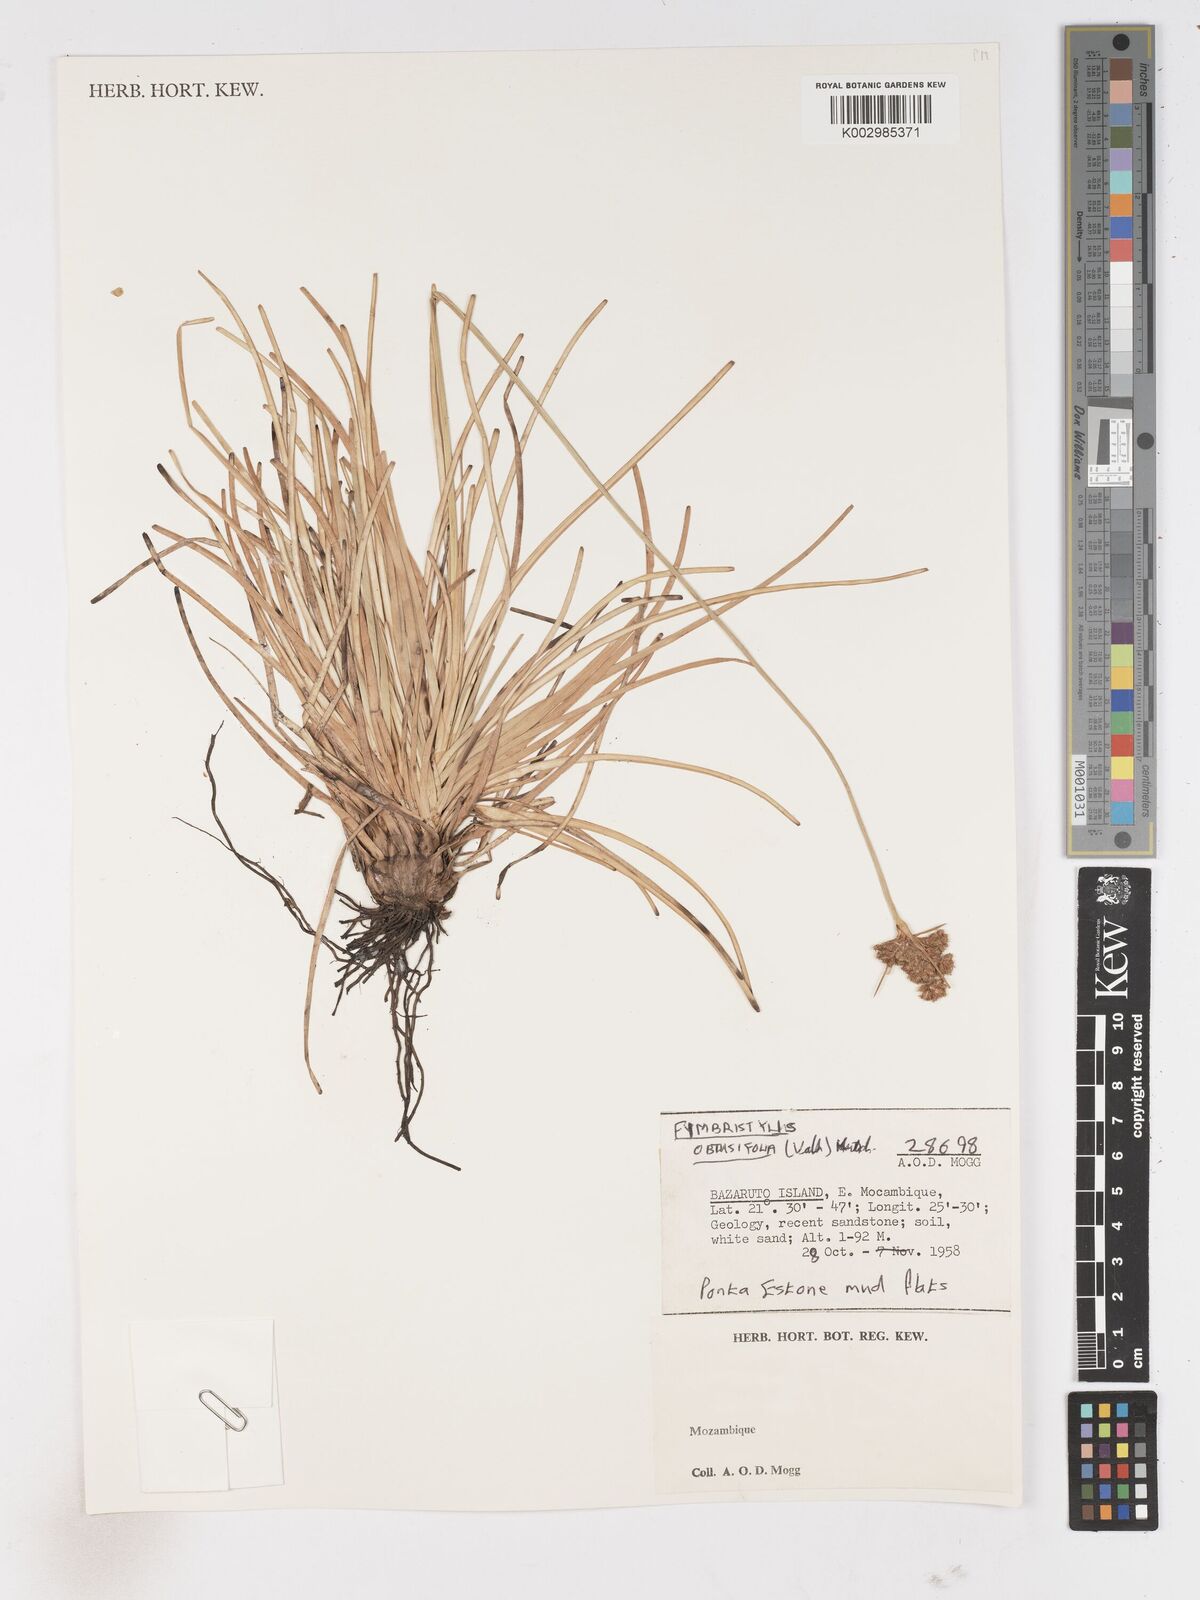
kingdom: Plantae
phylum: Tracheophyta
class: Liliopsida
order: Poales
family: Cyperaceae
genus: Fimbristylis
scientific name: Fimbristylis cymosa
